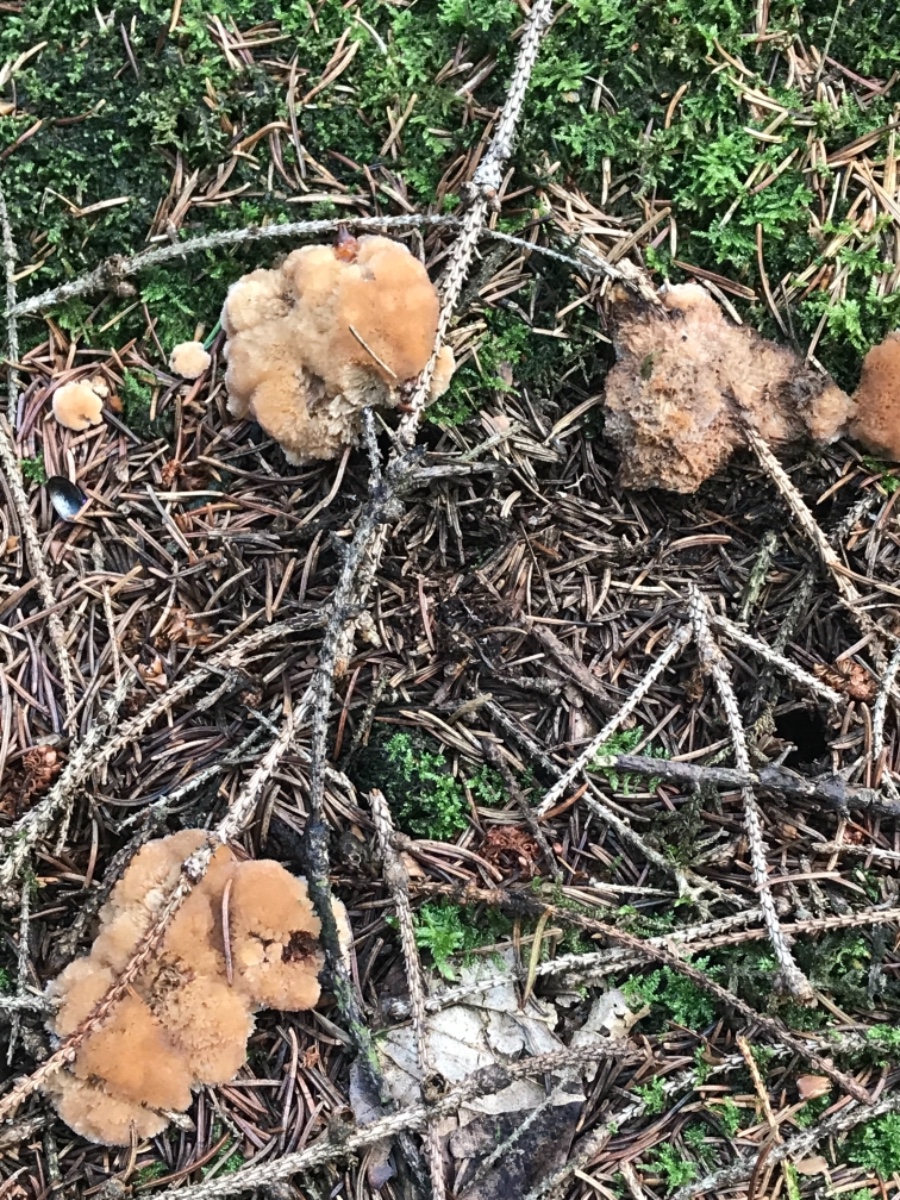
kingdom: Fungi
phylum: Basidiomycota
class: Agaricomycetes
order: Polyporales
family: Dacryobolaceae
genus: Postia
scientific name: Postia ptychogaster
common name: støvende kødporesvamp
